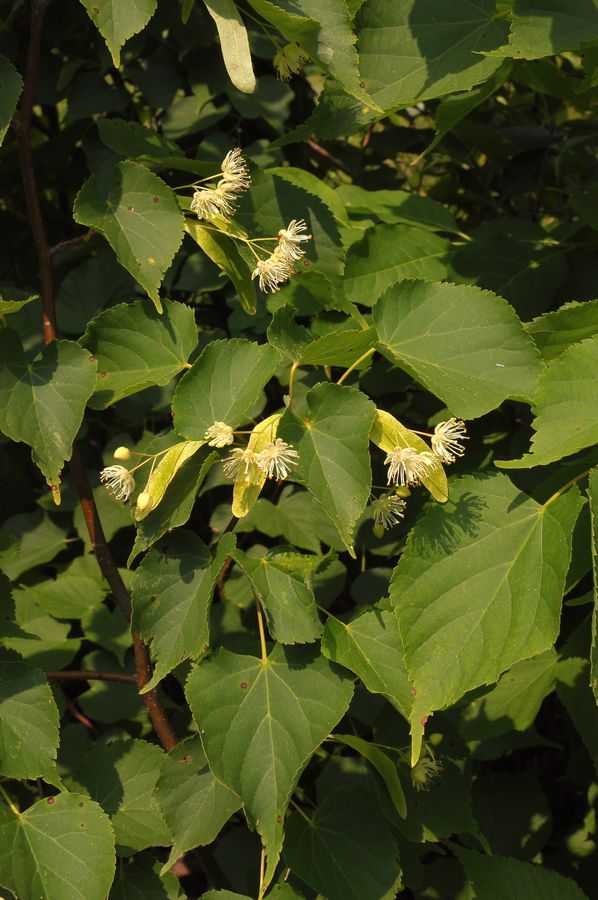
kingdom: Plantae
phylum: Tracheophyta
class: Magnoliopsida
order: Malvales
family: Malvaceae
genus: Tilia
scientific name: Tilia cordata
